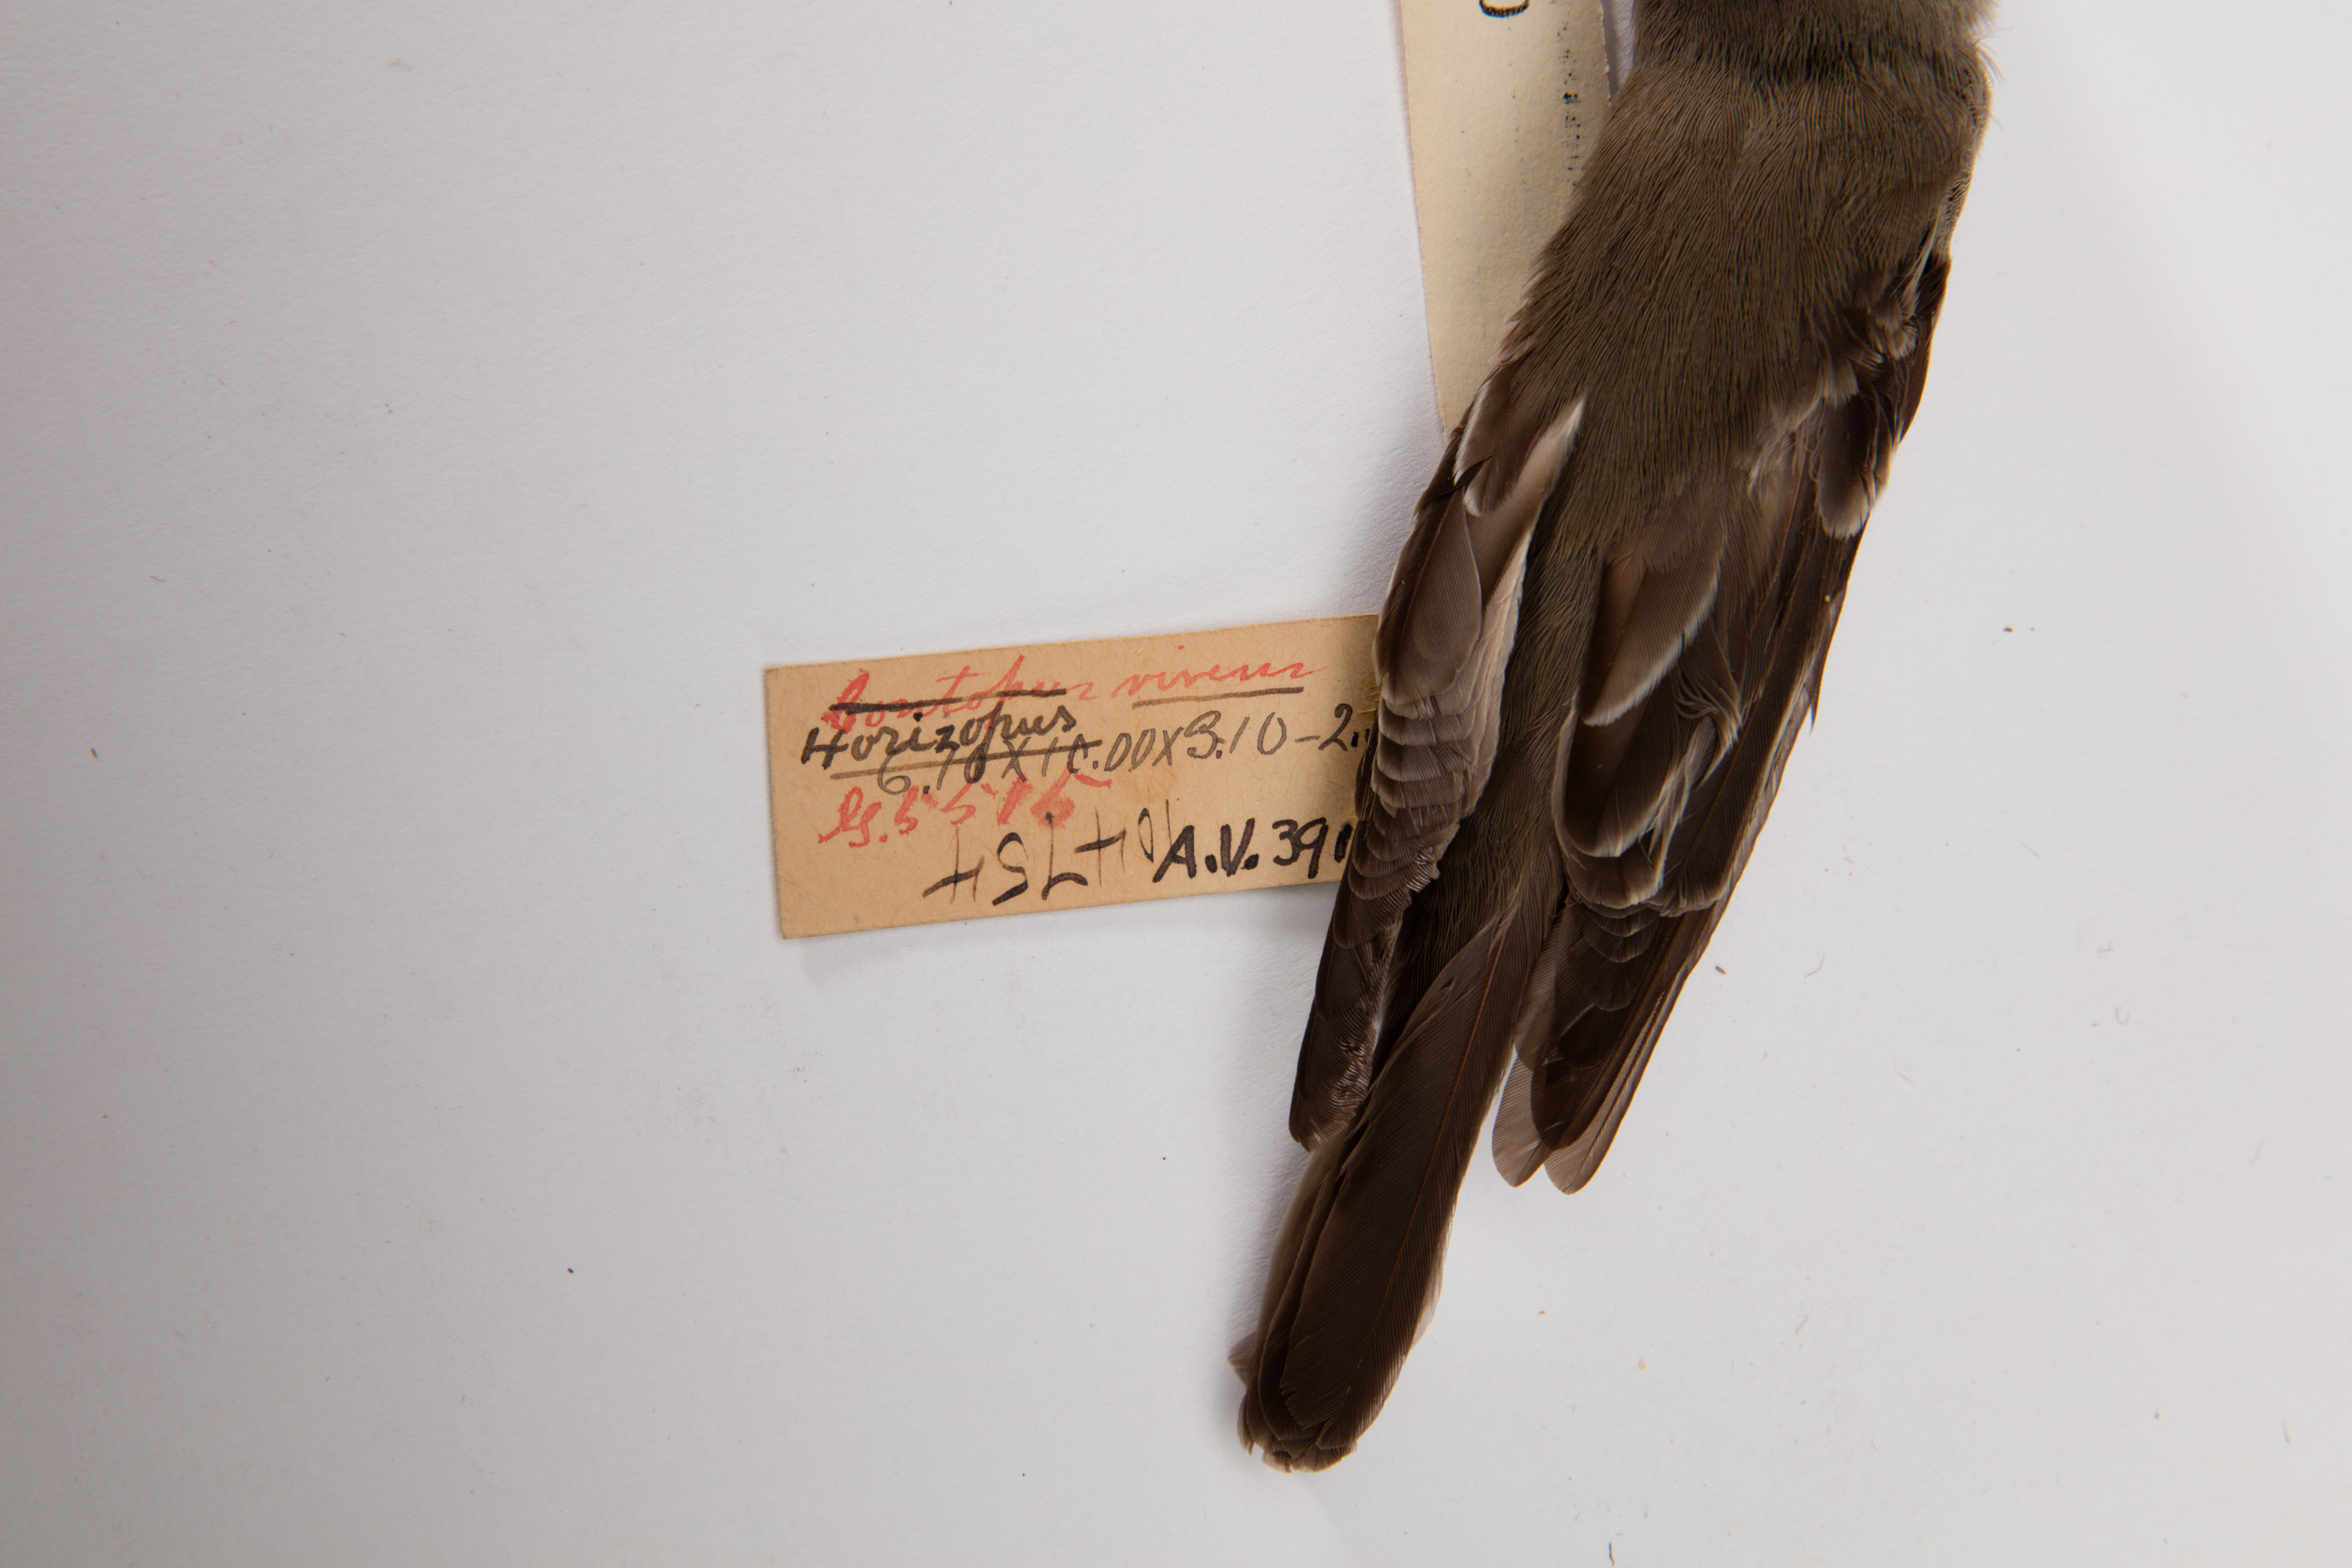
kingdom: Animalia
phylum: Chordata
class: Aves
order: Passeriformes
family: Tyrannidae
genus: Contopus
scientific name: Contopus virens
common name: Eastern wood-pewee
